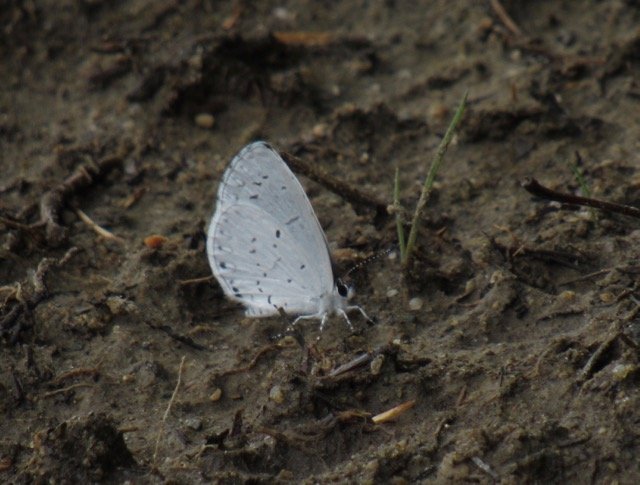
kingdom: Animalia
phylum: Arthropoda
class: Insecta
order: Lepidoptera
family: Lycaenidae
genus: Cyaniris
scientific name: Cyaniris neglecta
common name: Summer Azure
